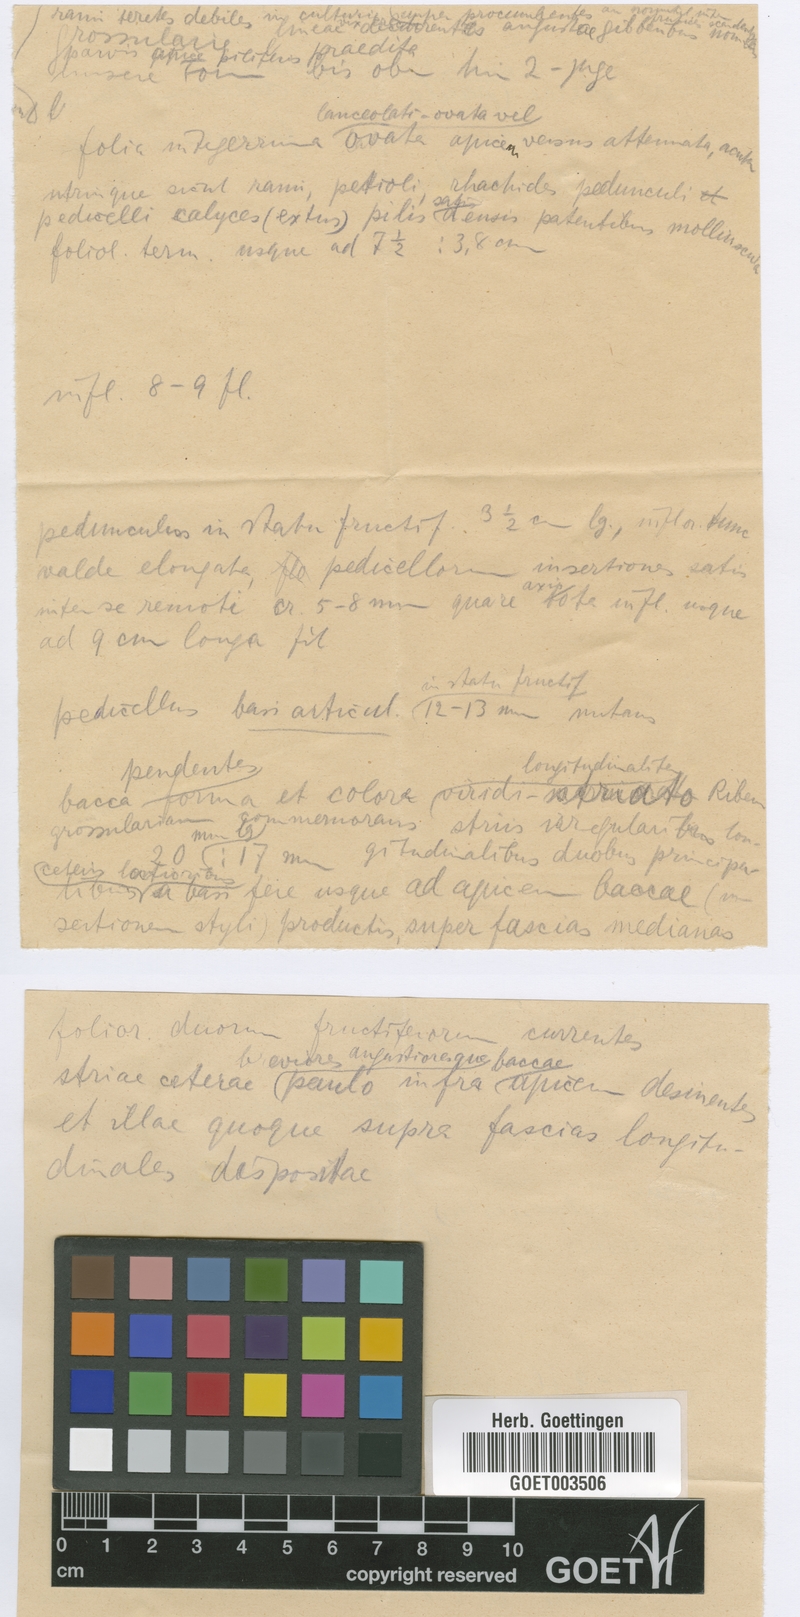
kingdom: Plantae
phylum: Tracheophyta
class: Magnoliopsida
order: Solanales
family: Solanaceae
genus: Solanum
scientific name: Solanum fraxinifolium
